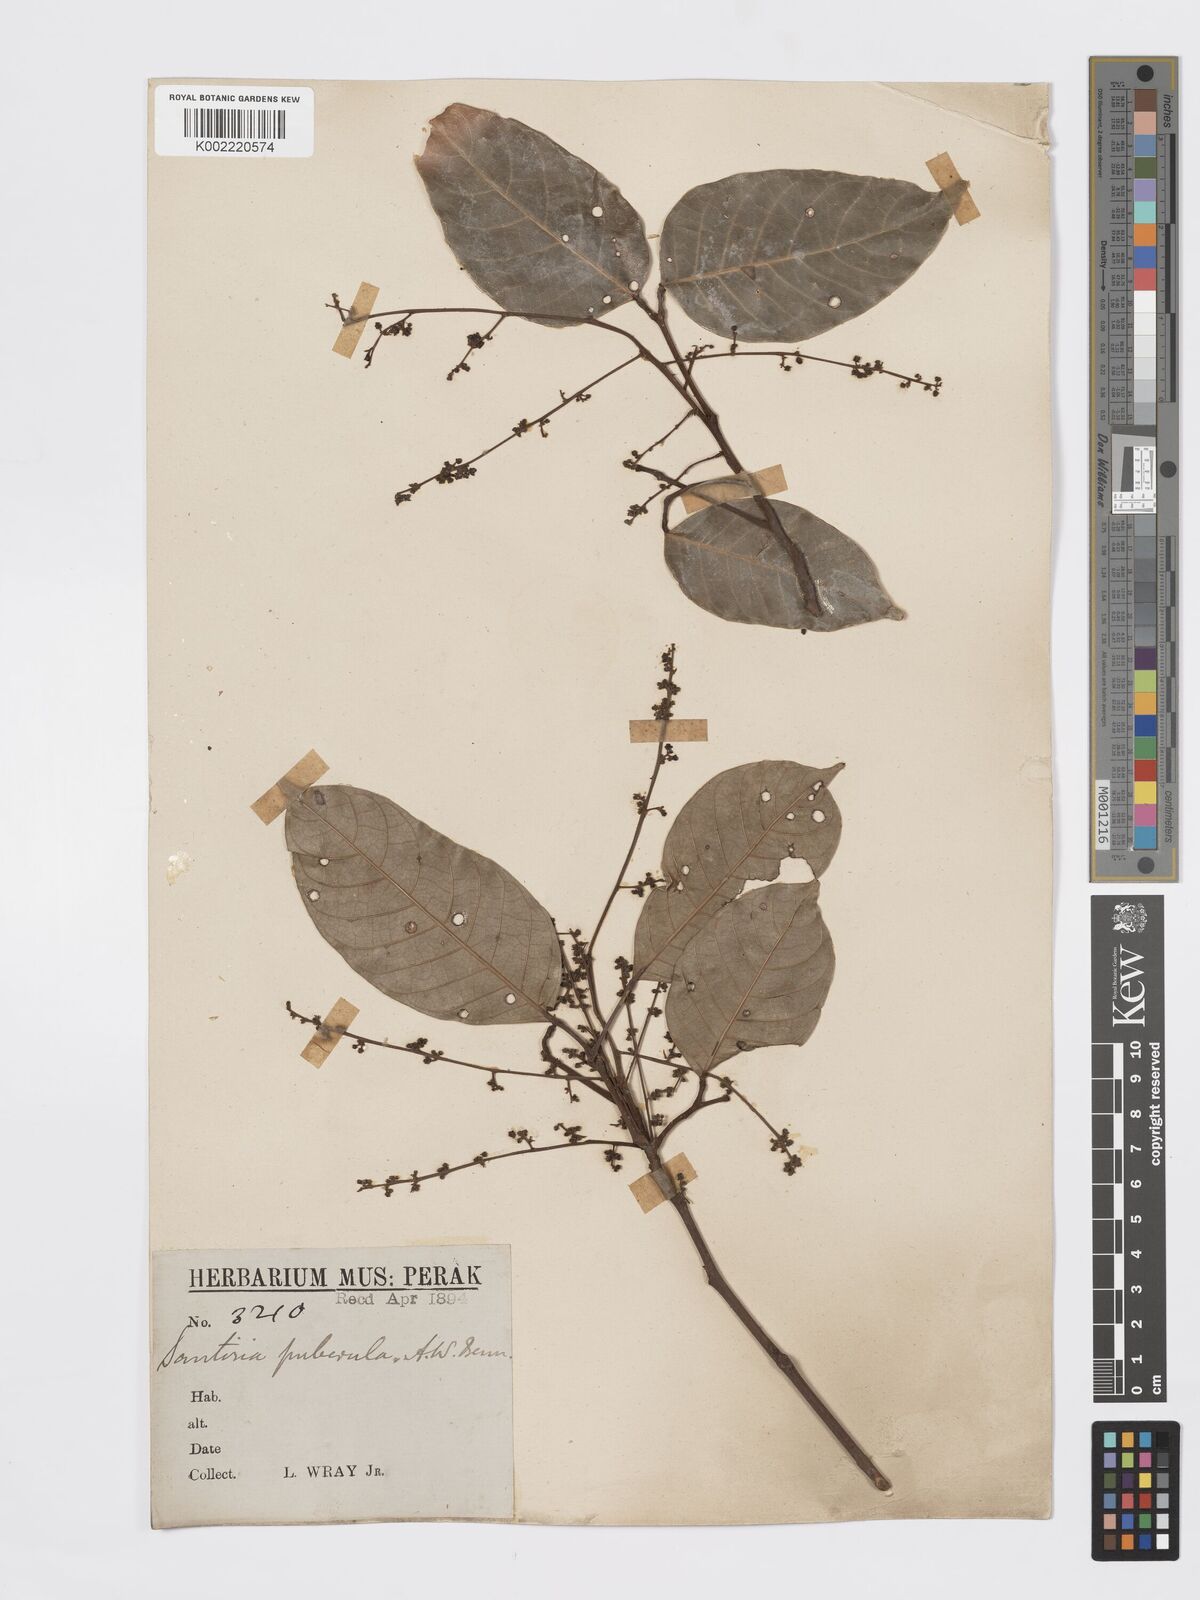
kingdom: Plantae
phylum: Tracheophyta
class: Magnoliopsida
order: Sapindales
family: Burseraceae
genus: Santiria
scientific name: Santiria apiculata
